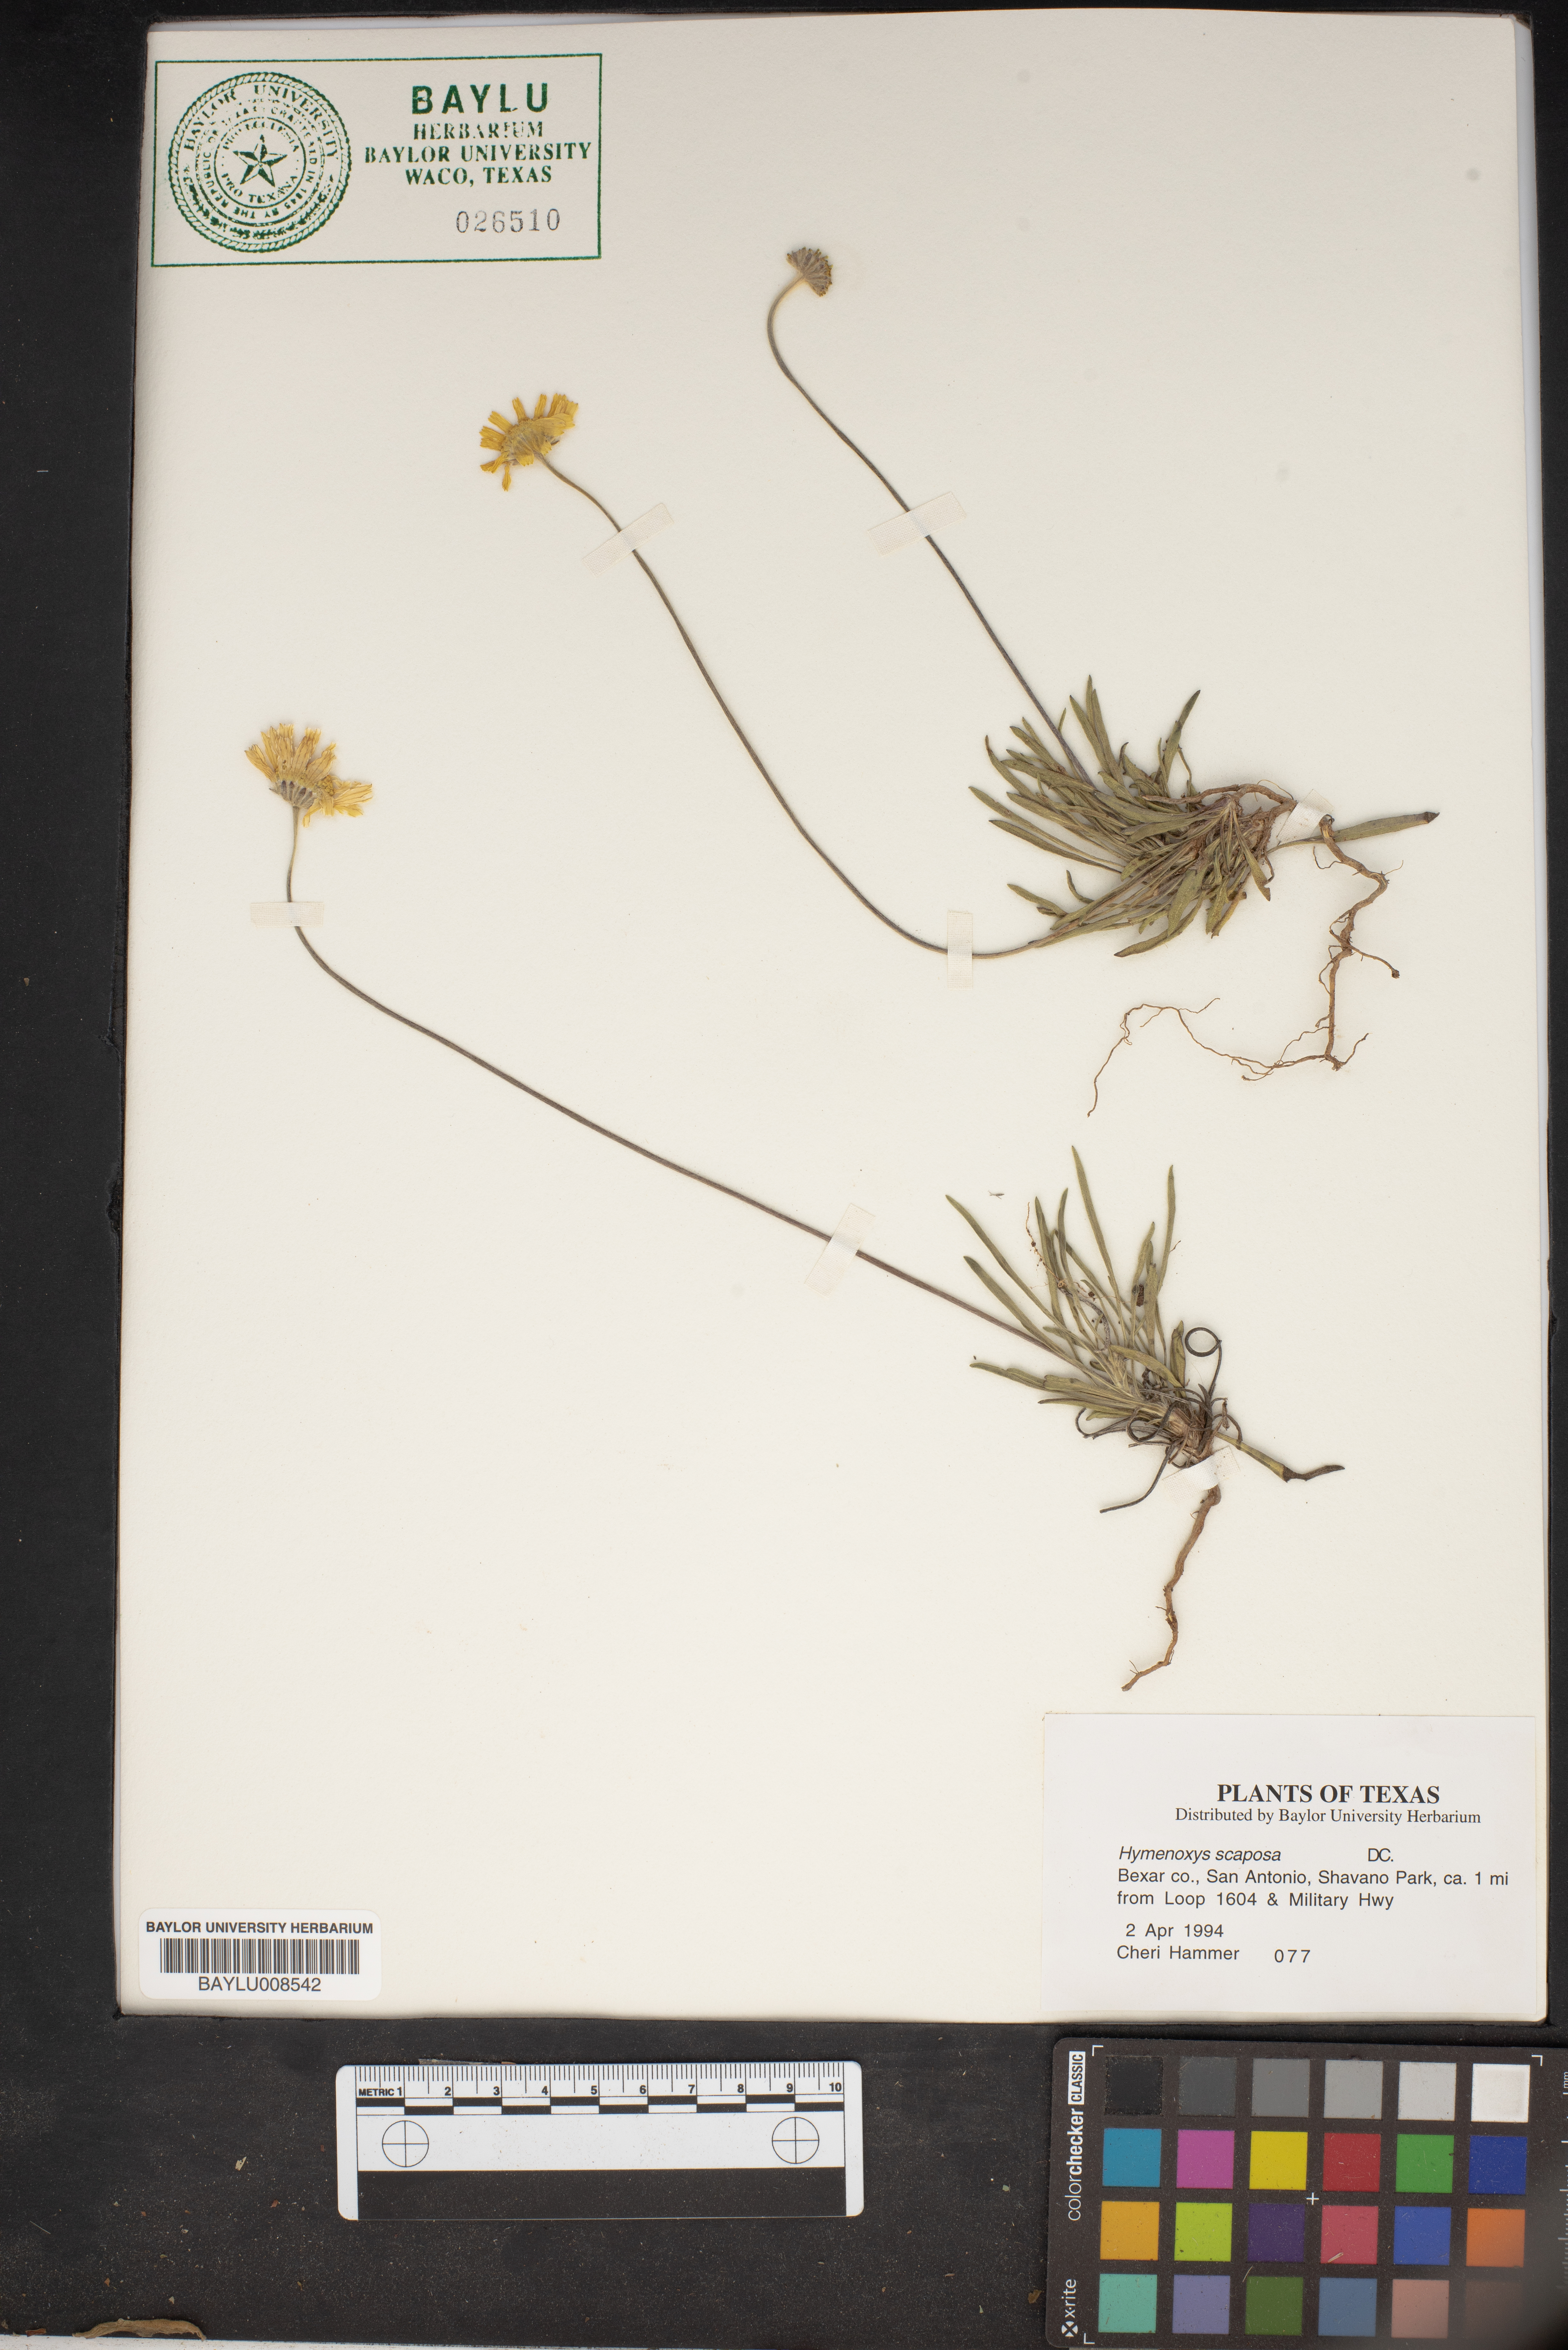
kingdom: Plantae
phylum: Tracheophyta
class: Magnoliopsida
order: Asterales
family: Asteraceae
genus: Tetraneuris
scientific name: Tetraneuris scaposa
